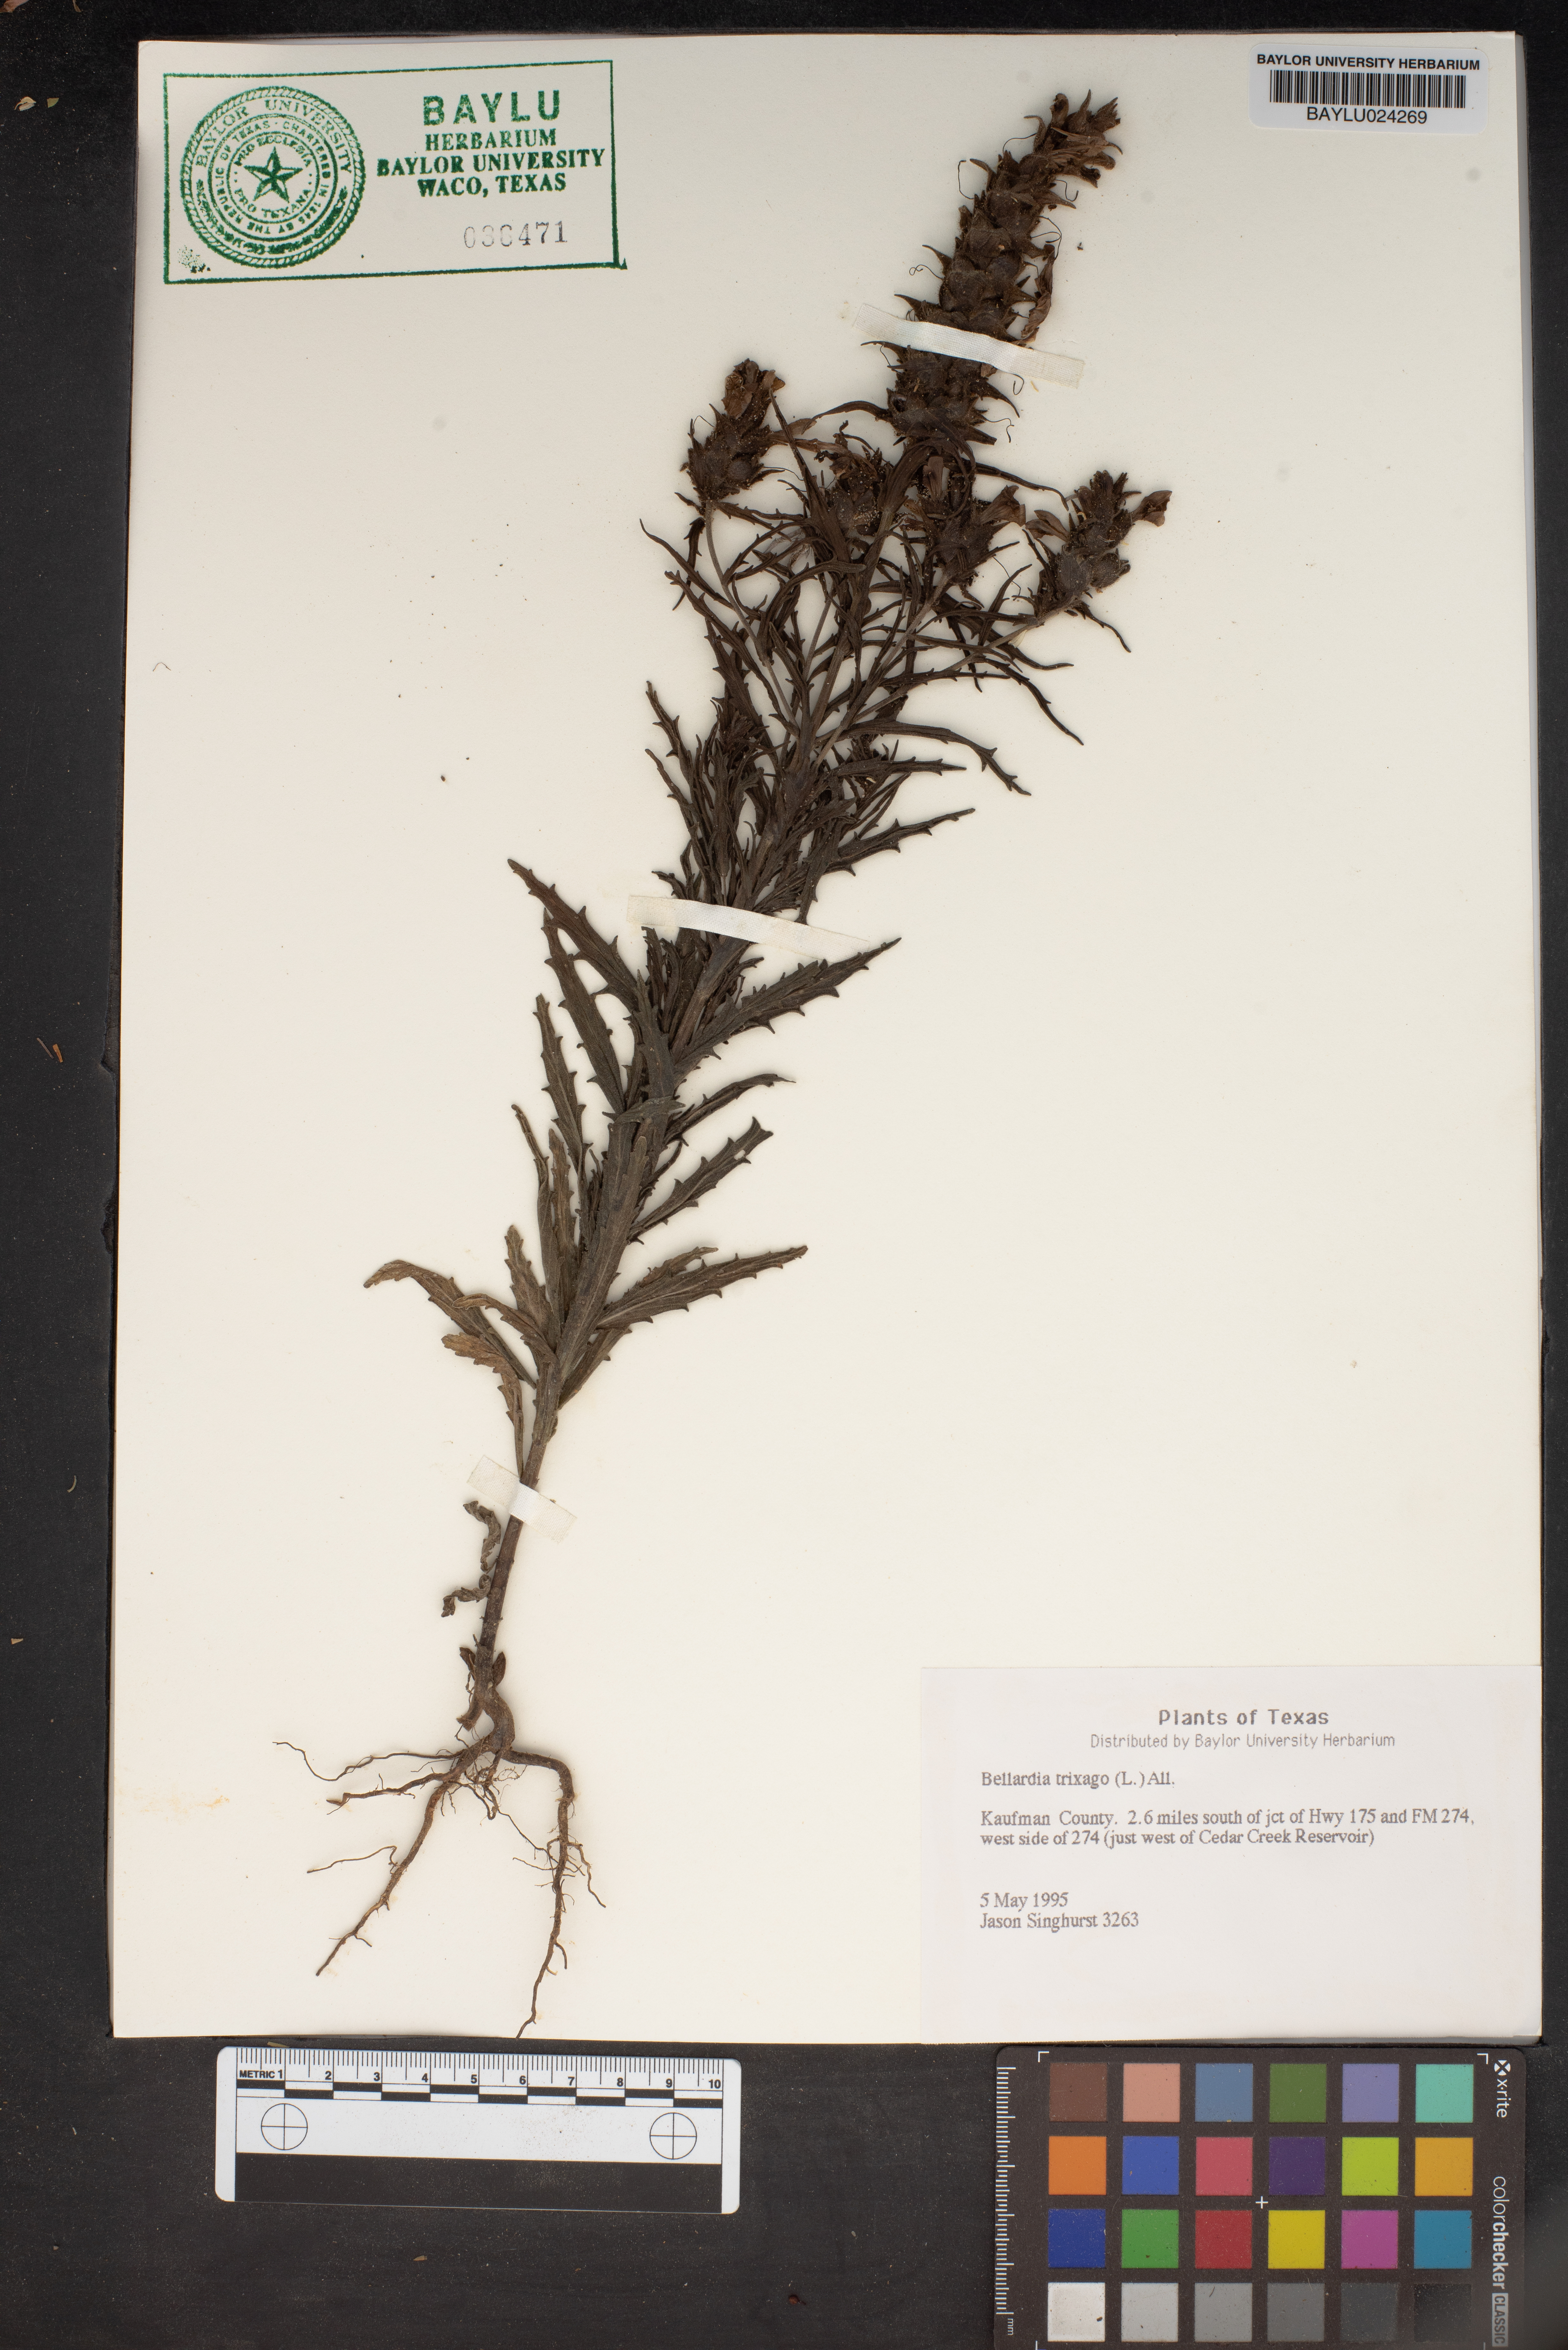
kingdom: Plantae
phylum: Tracheophyta
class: Magnoliopsida
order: Lamiales
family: Orobanchaceae
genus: Bellardia
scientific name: Bellardia trixago
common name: Mediterranean lineseed
